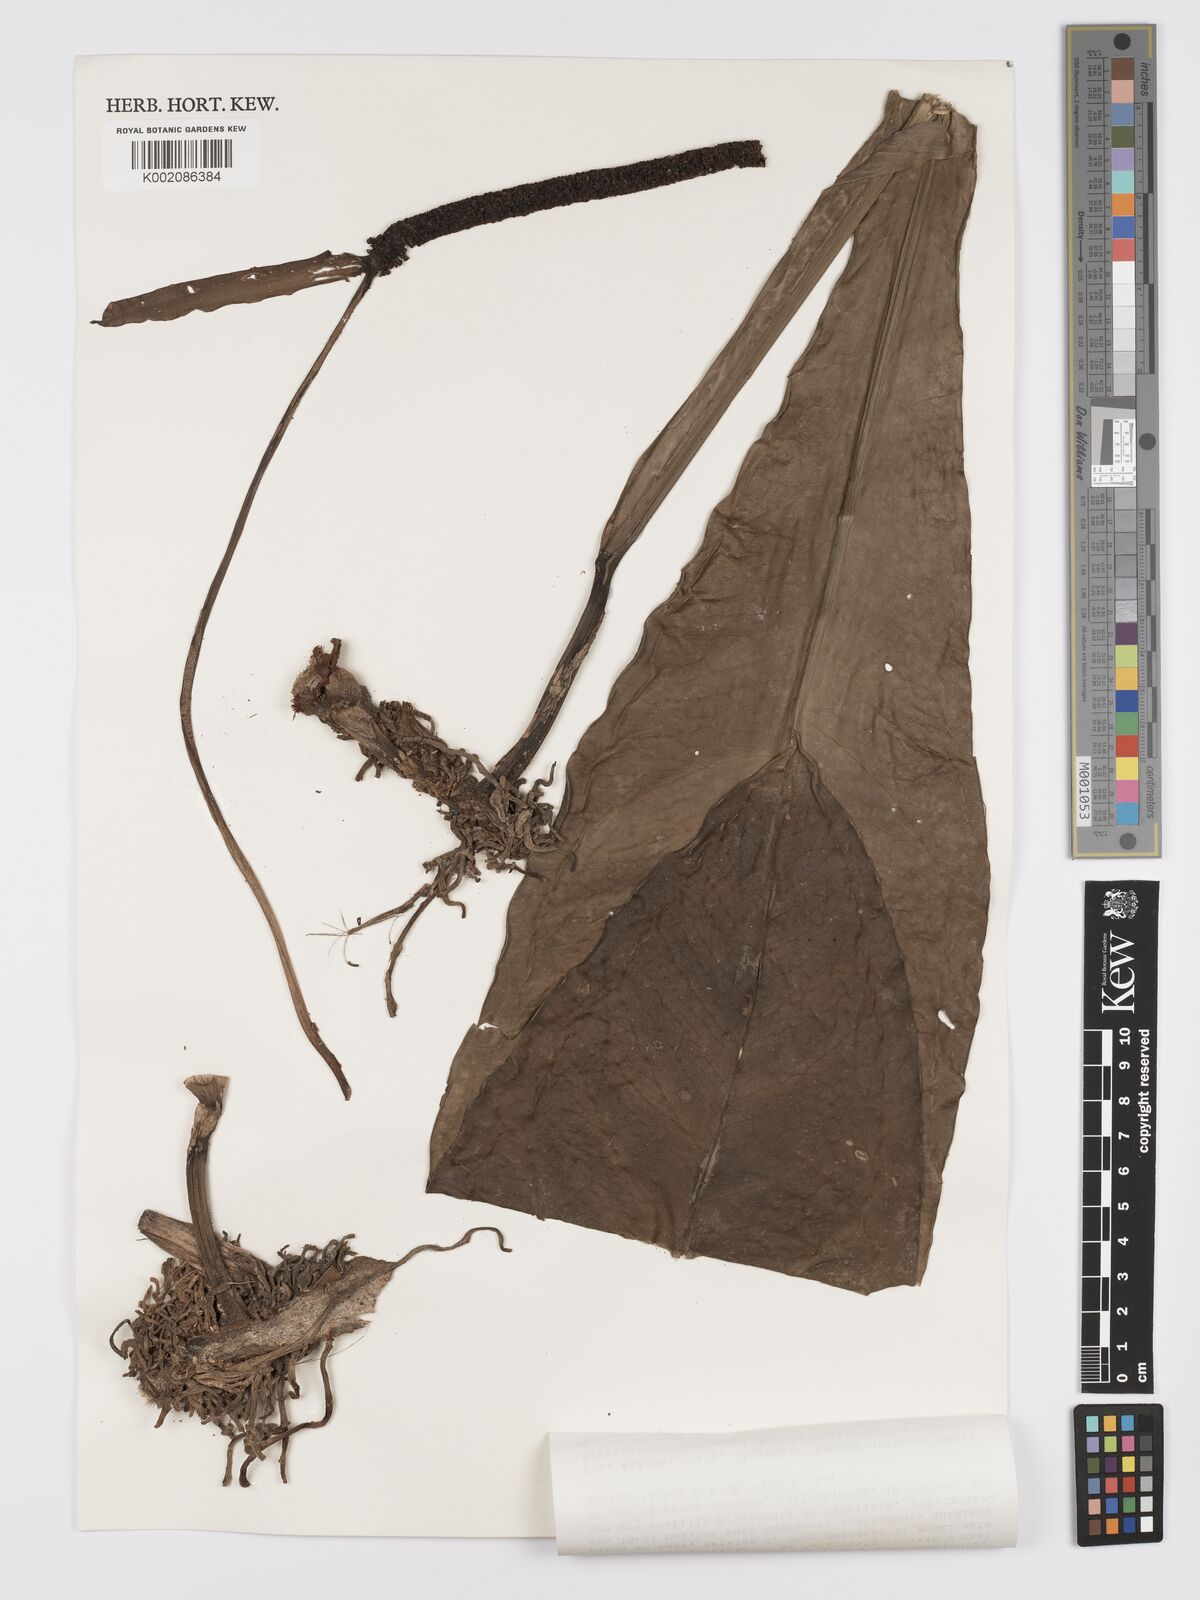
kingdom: Plantae
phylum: Tracheophyta
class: Liliopsida
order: Alismatales
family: Araceae
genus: Anthurium
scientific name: Anthurium lilacinum
